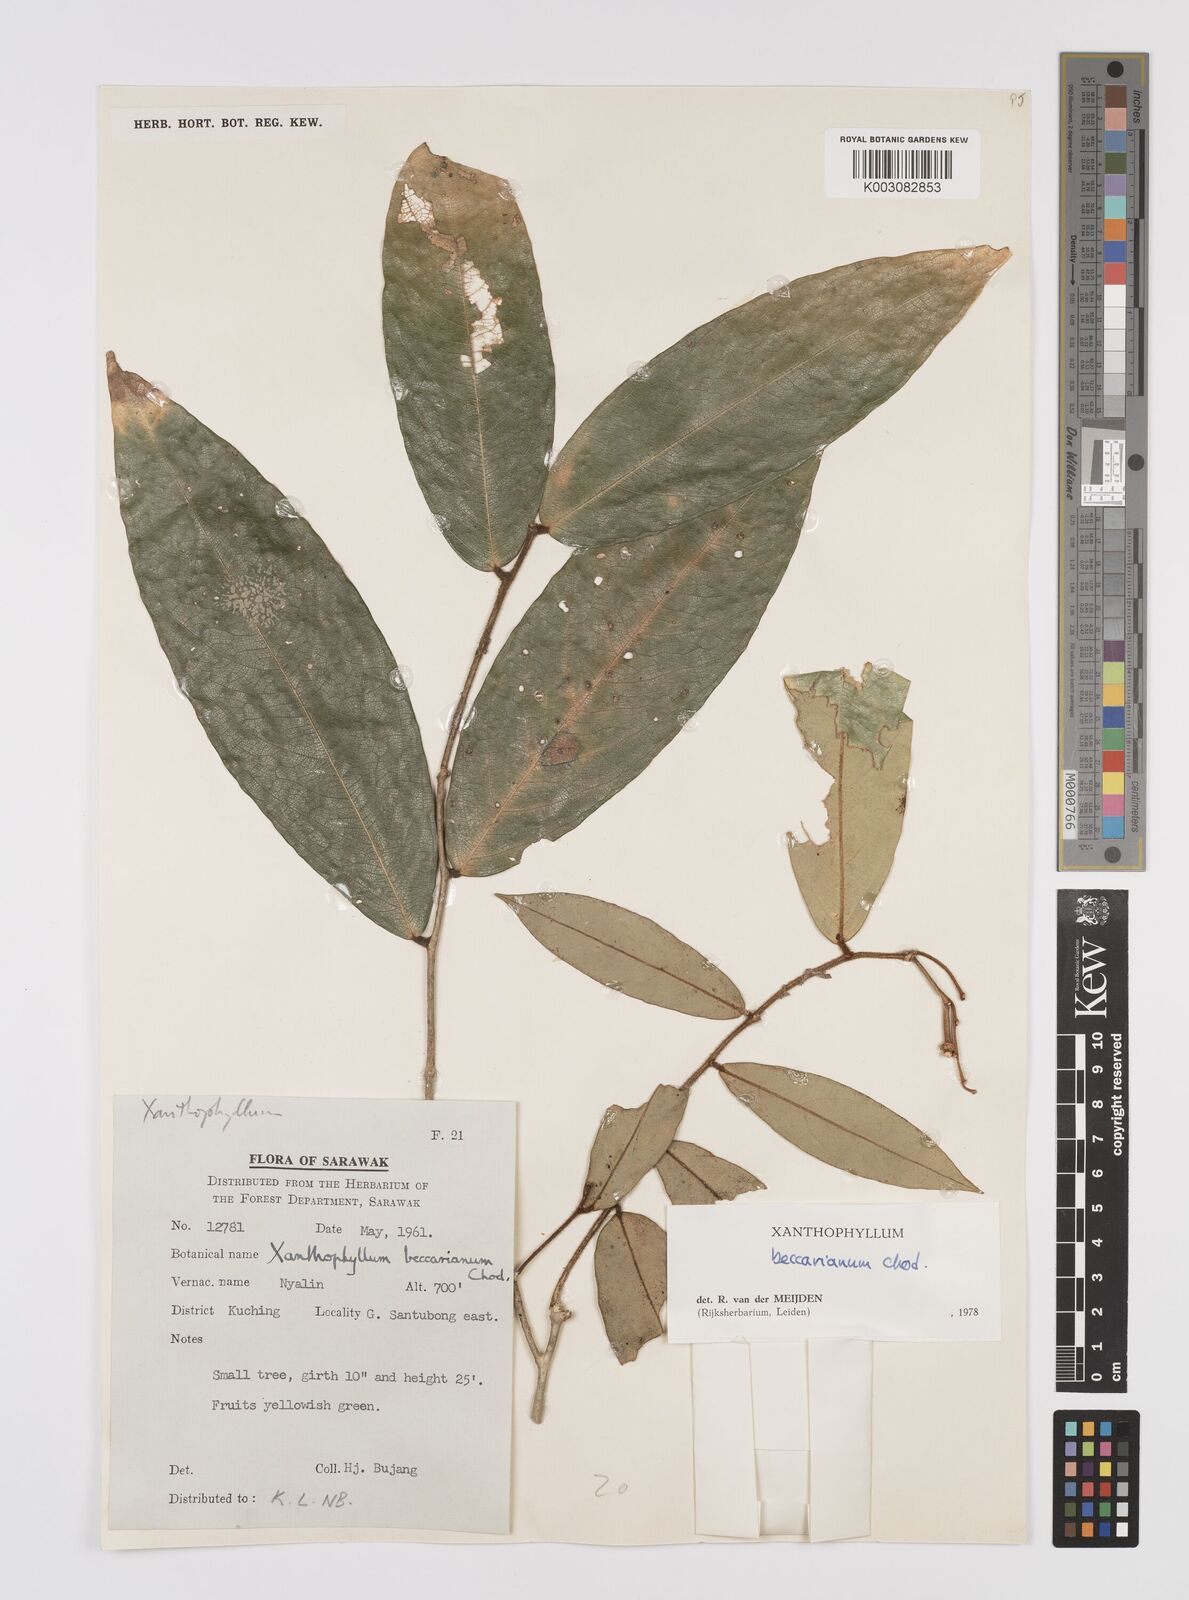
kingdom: Plantae
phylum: Tracheophyta
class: Magnoliopsida
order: Fabales
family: Polygalaceae
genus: Xanthophyllum
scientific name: Xanthophyllum beccarianum
